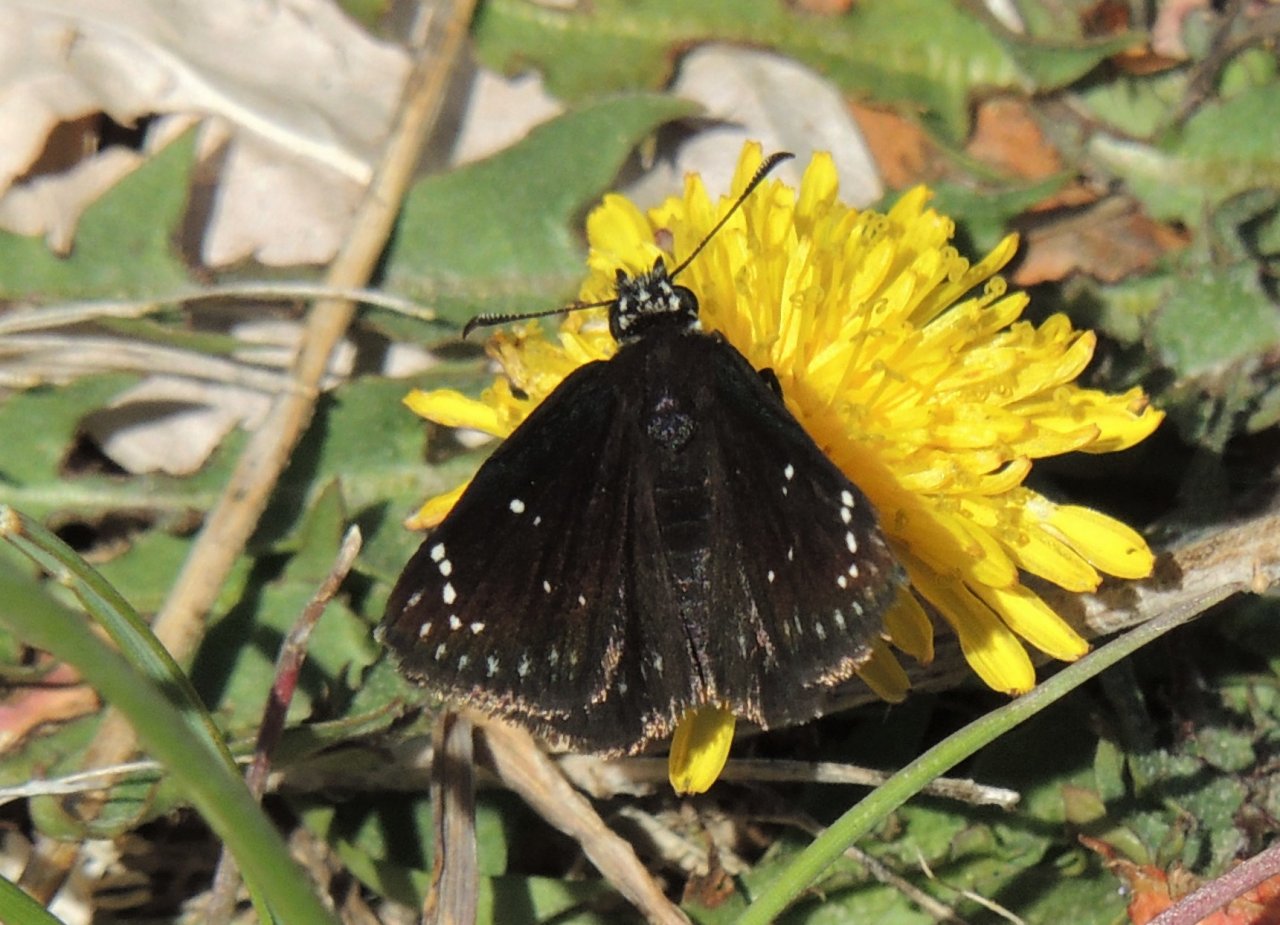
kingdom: Animalia
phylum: Arthropoda
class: Insecta
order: Lepidoptera
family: Hesperiidae
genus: Pholisora
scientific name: Pholisora catullus
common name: Common Sootywing
